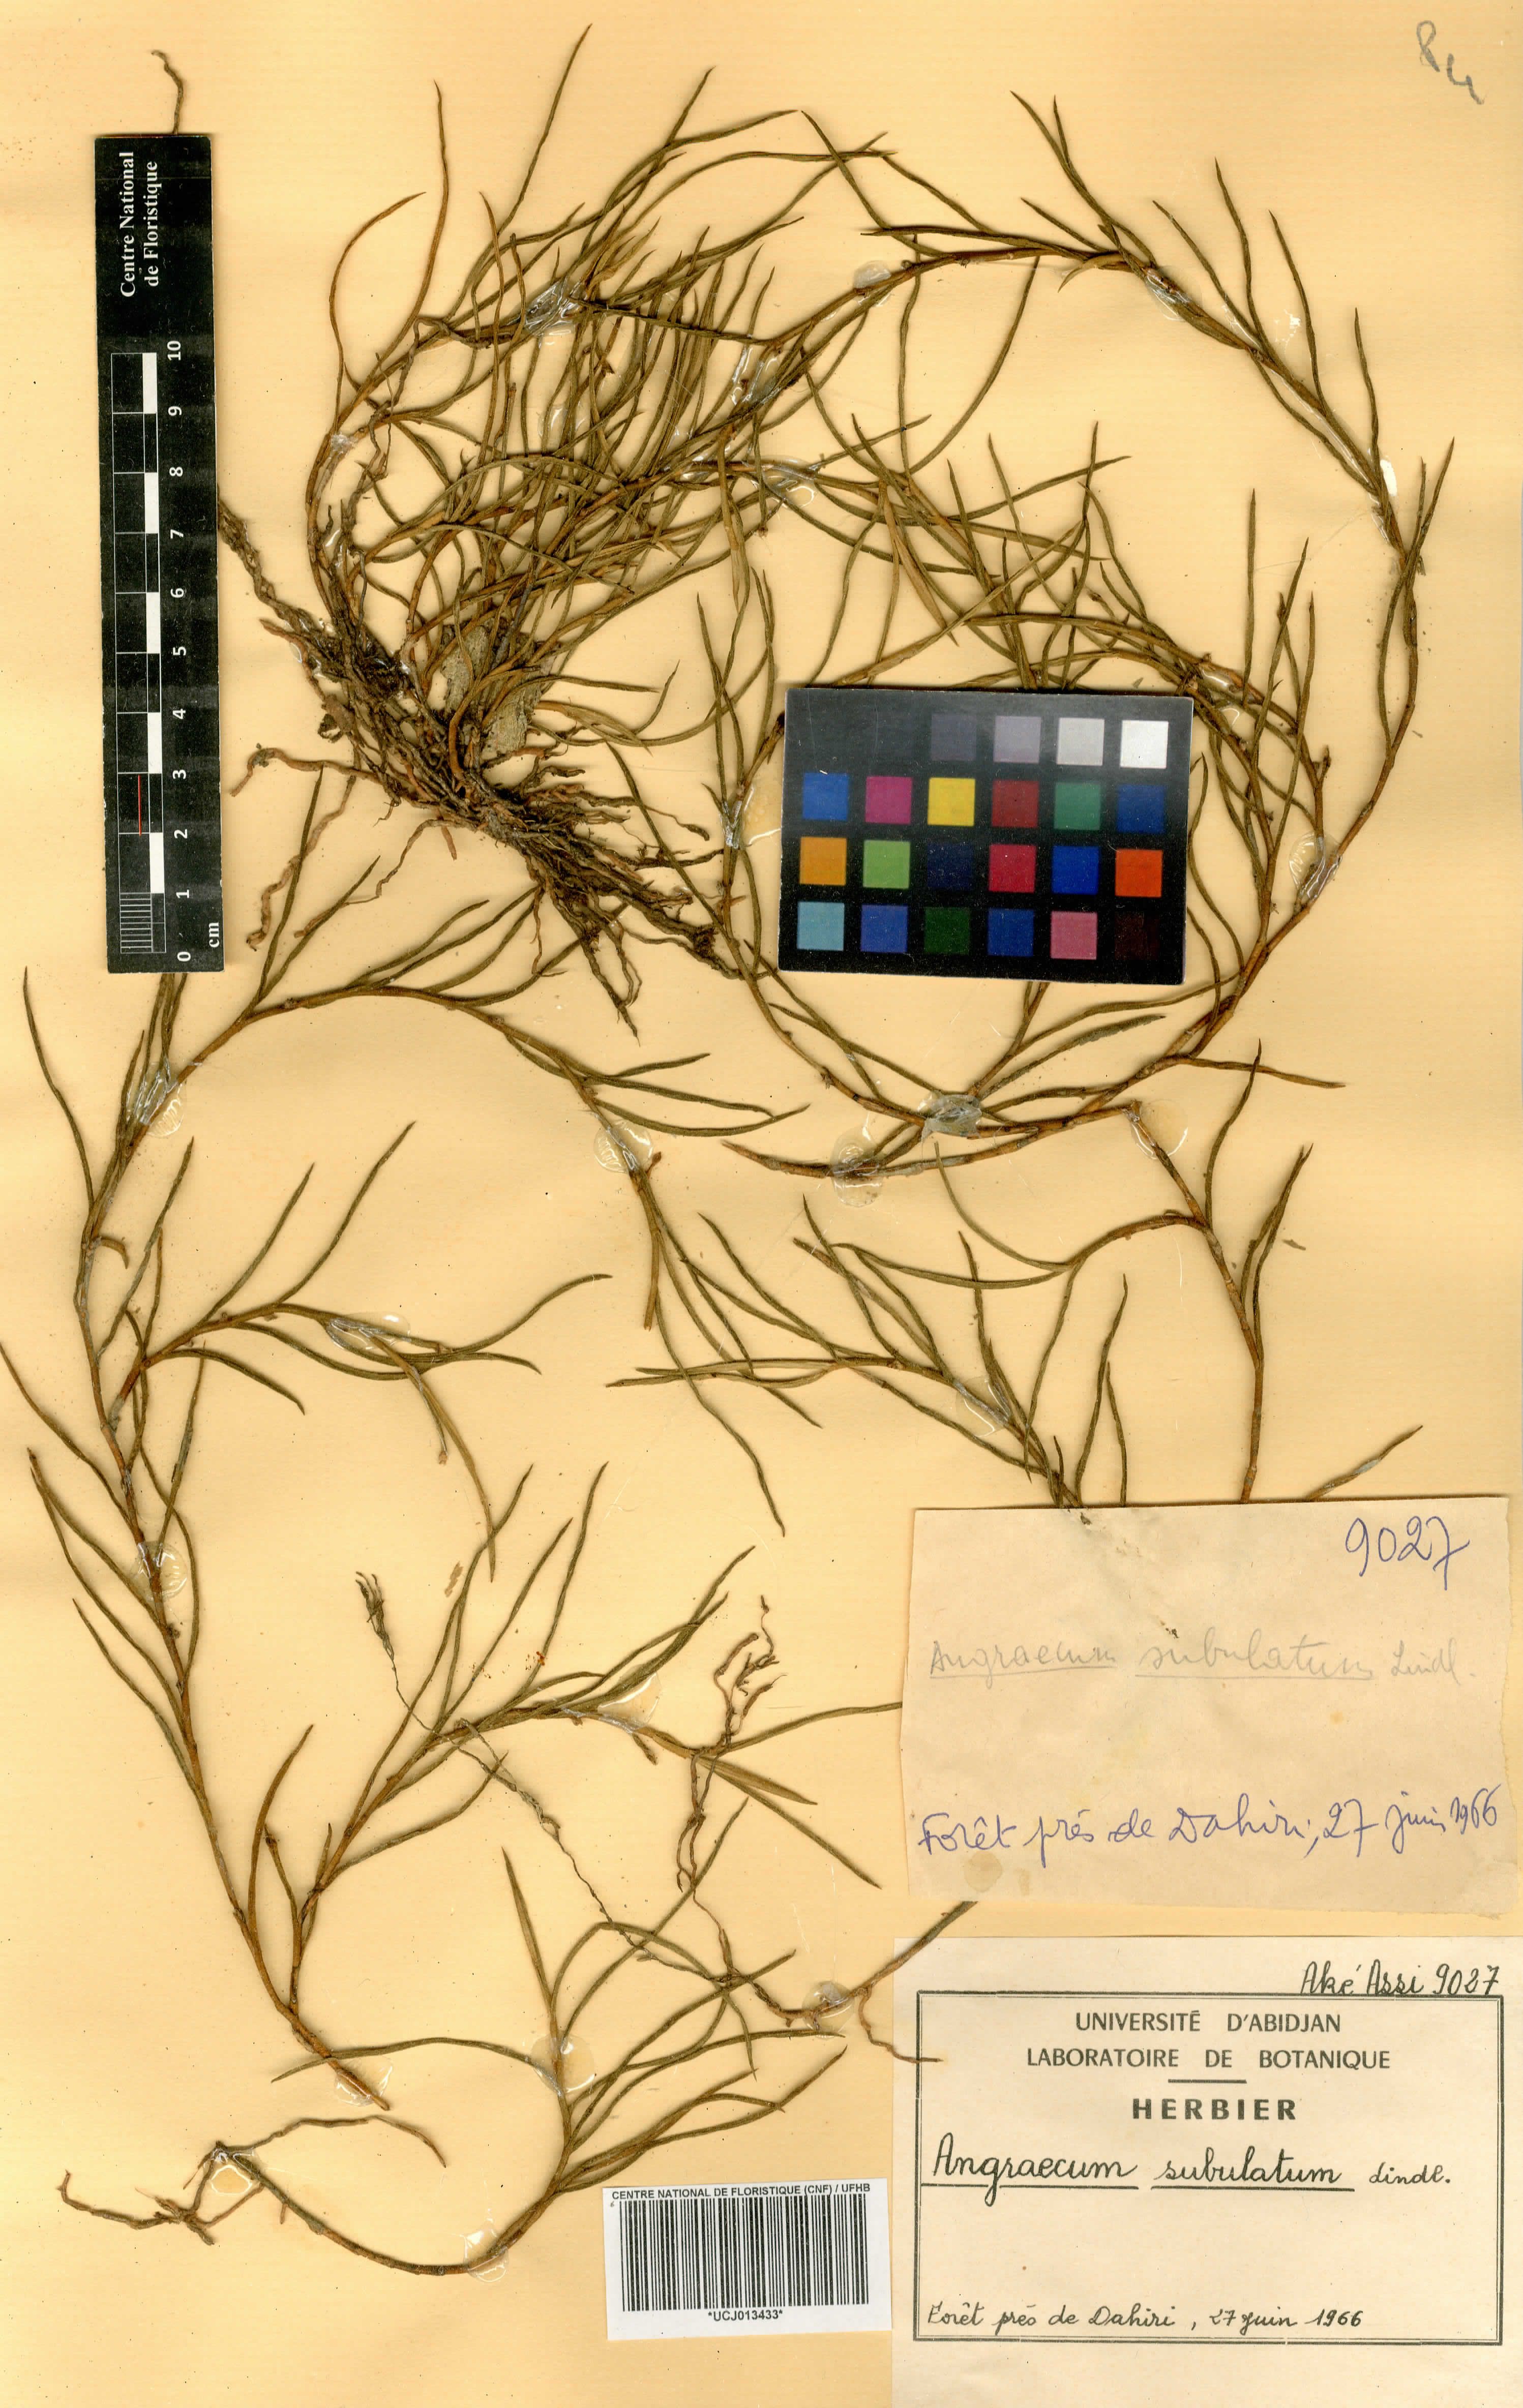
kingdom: Plantae
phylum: Tracheophyta
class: Liliopsida
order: Asparagales
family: Orchidaceae
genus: Afropectinariella
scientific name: Afropectinariella subulata
